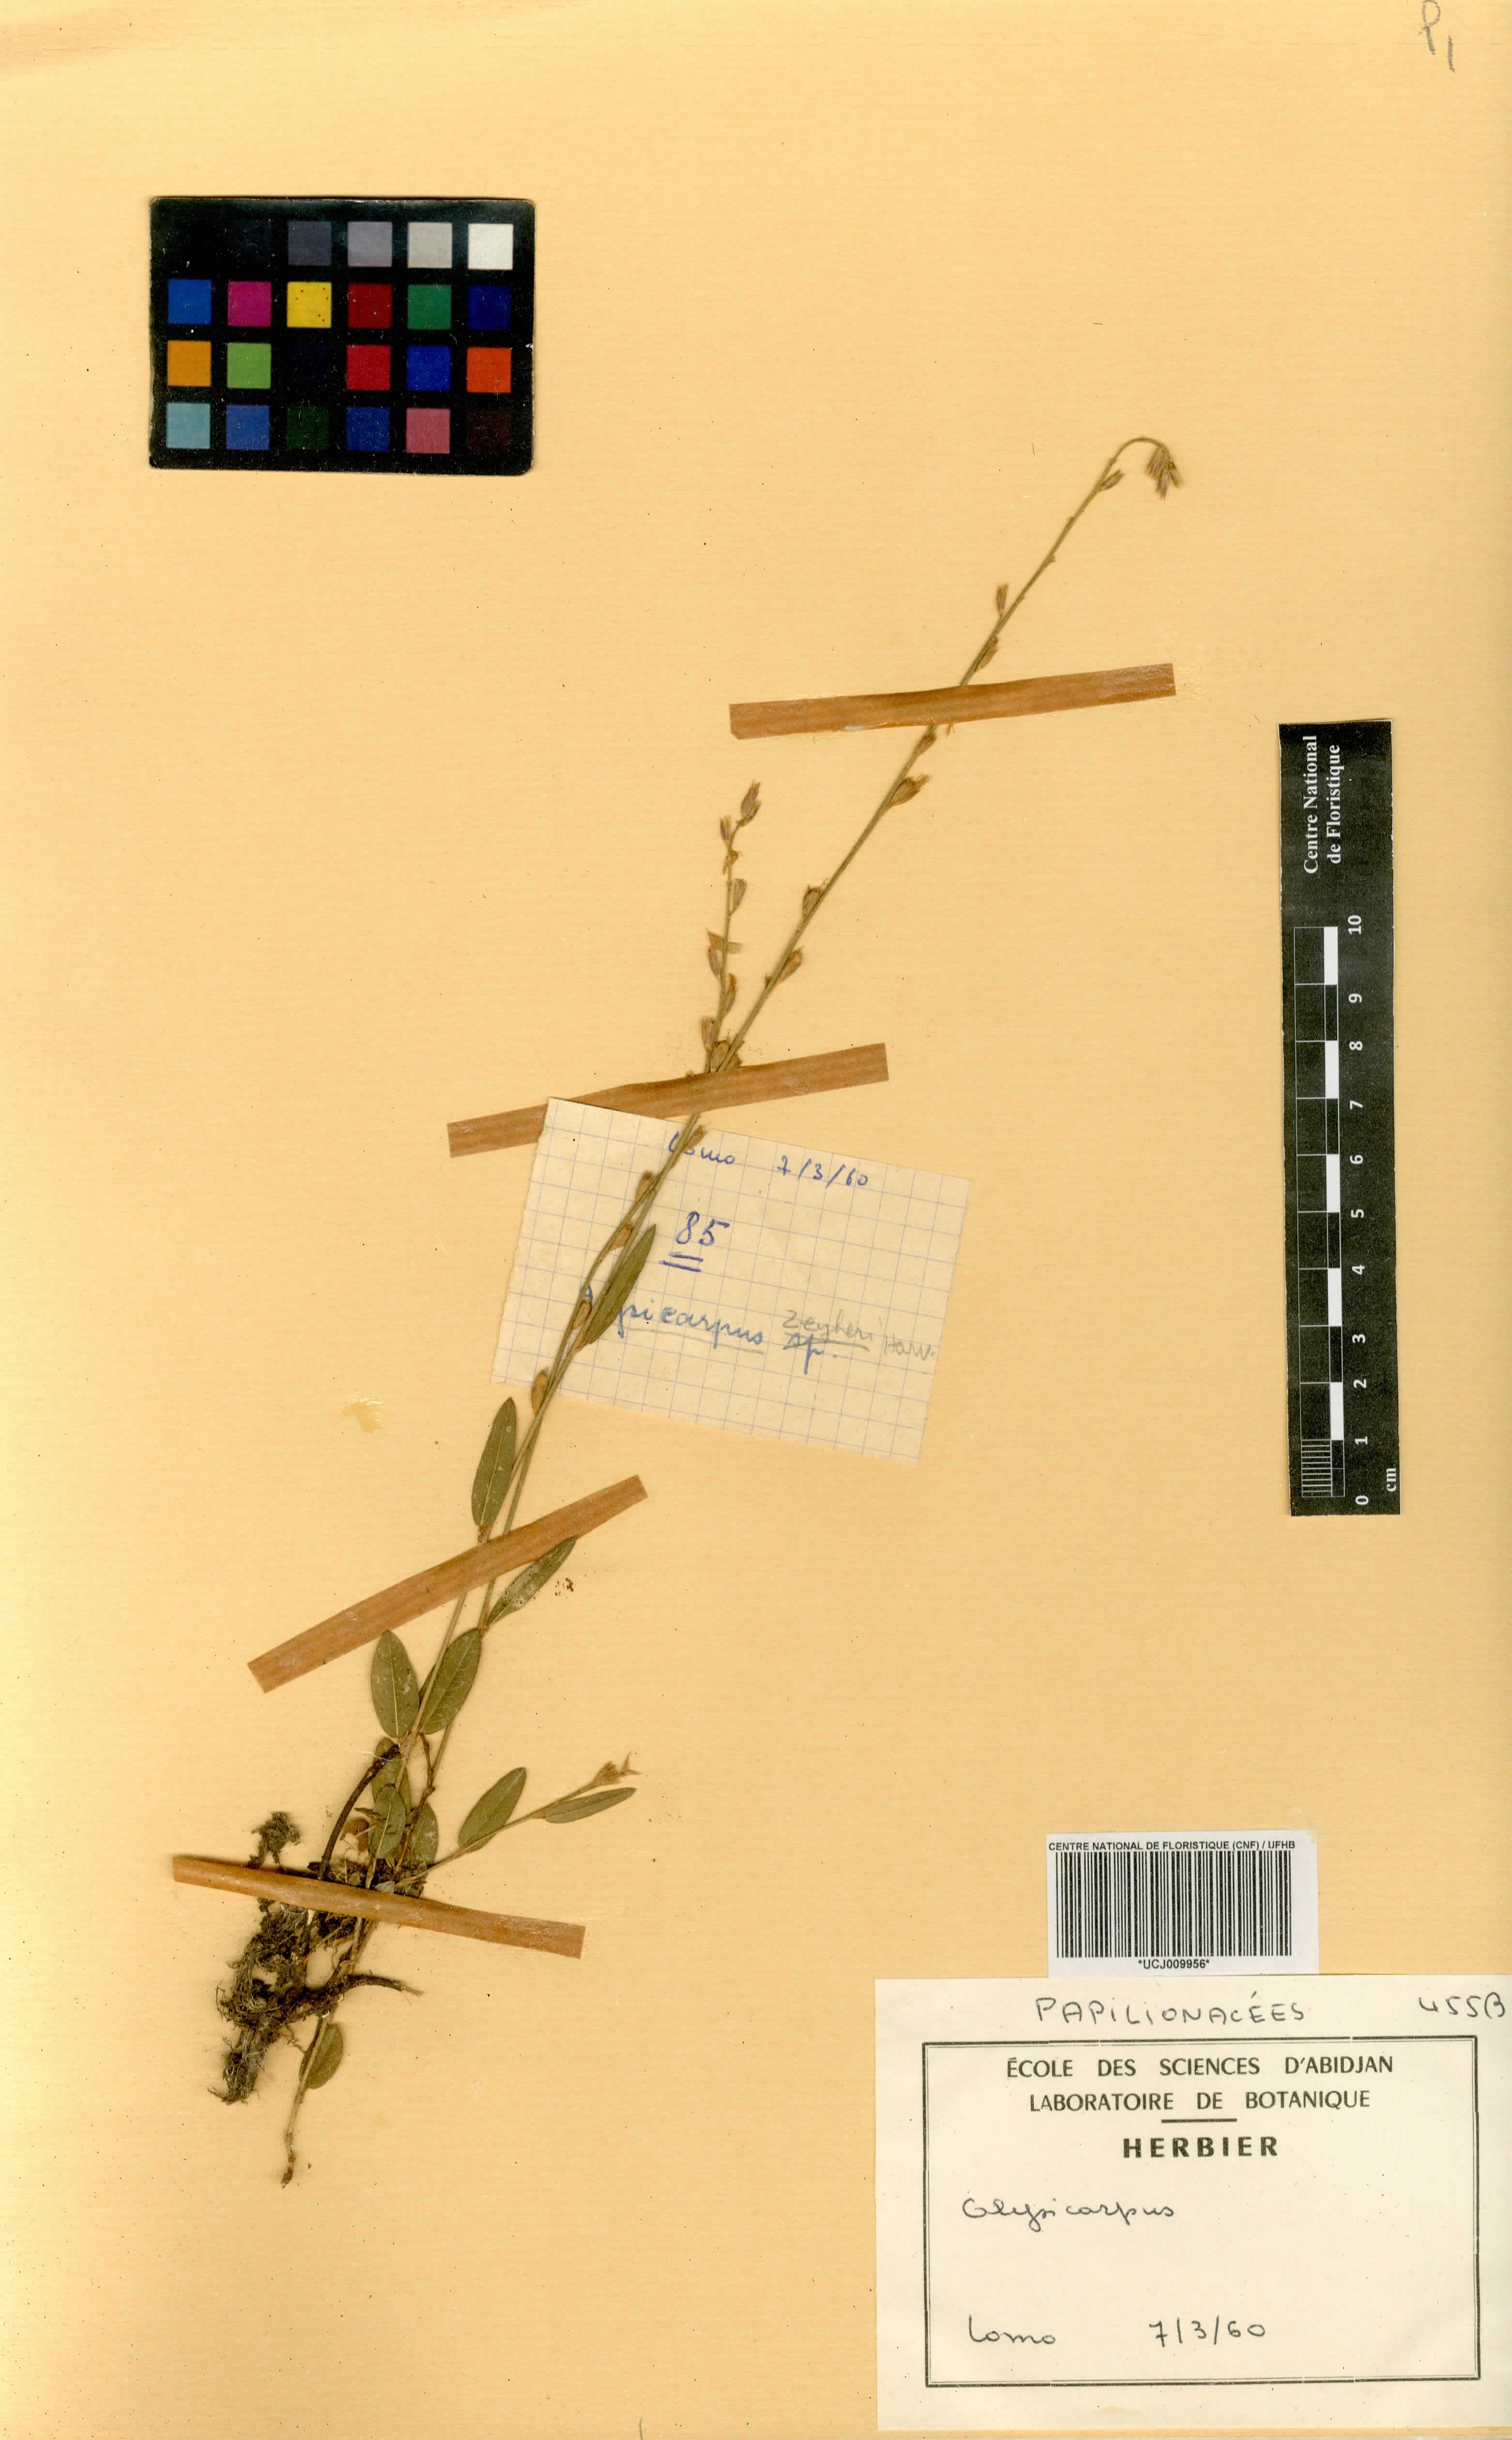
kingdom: Plantae
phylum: Tracheophyta
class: Magnoliopsida
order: Fabales
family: Fabaceae
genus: Alysicarpus
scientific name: Alysicarpus
